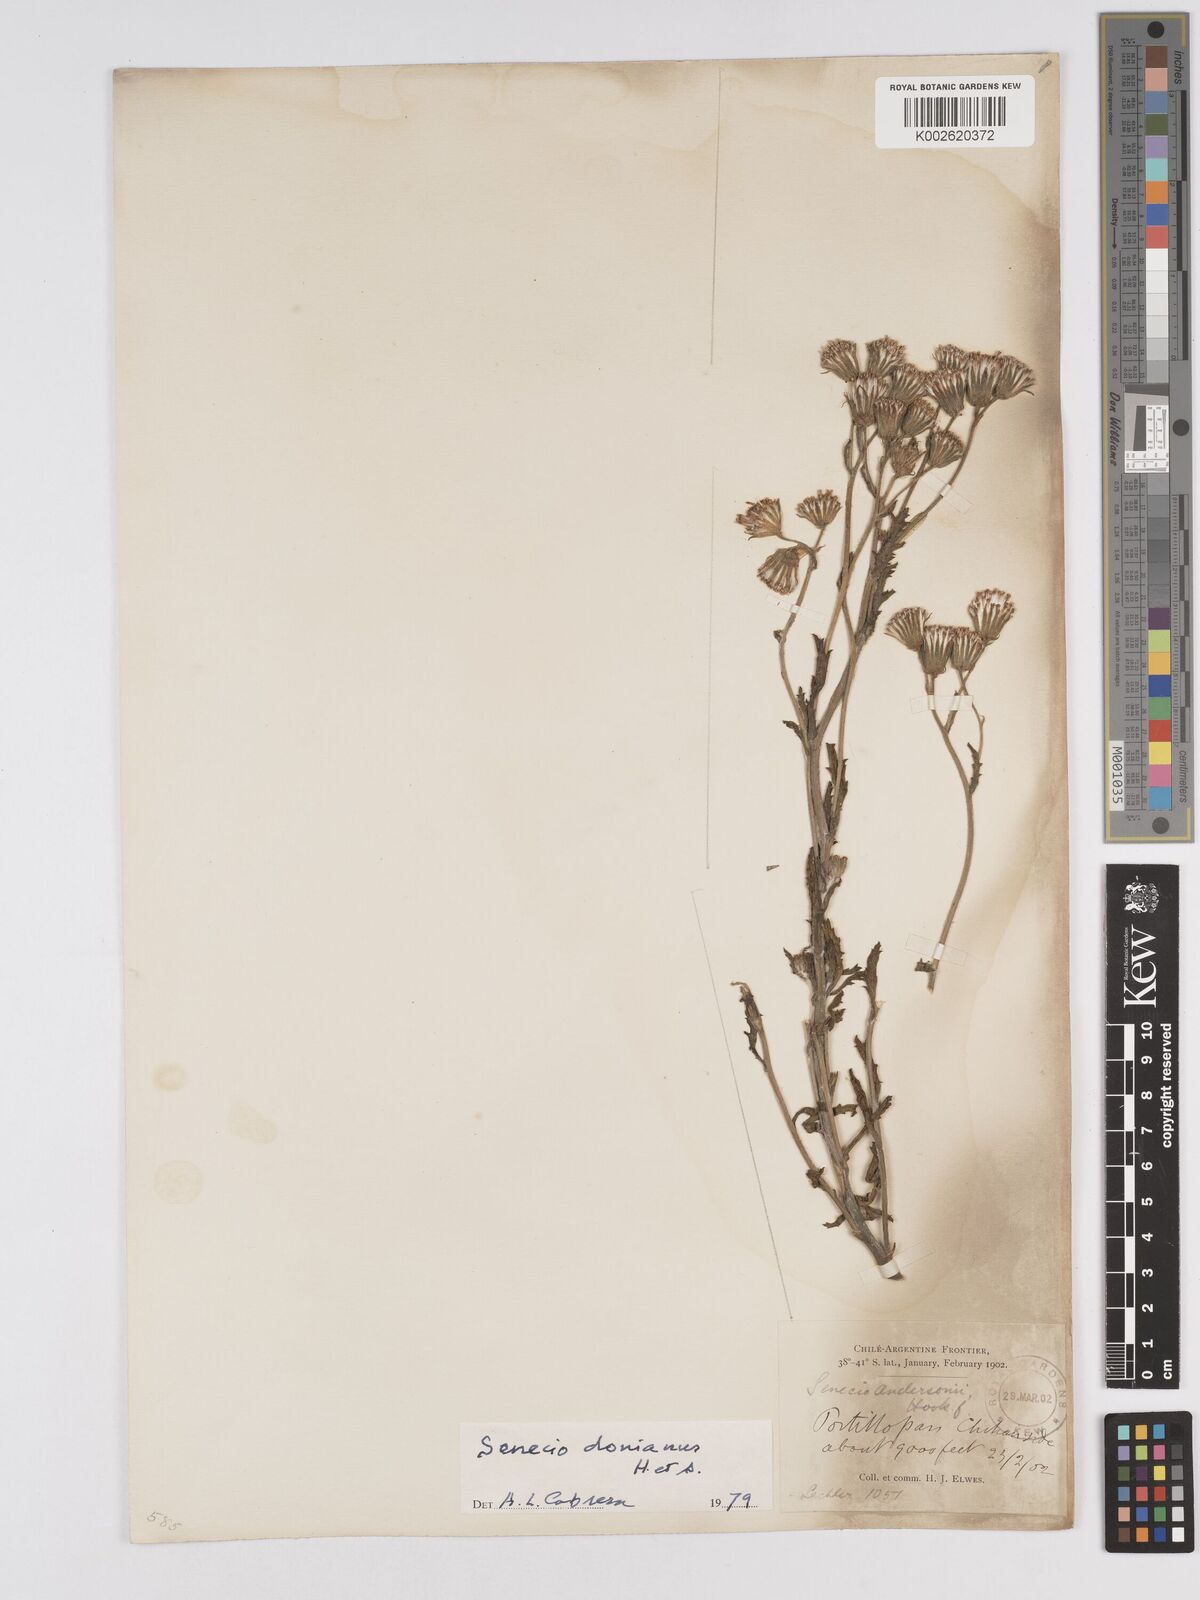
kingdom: Plantae
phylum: Tracheophyta
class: Magnoliopsida
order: Asterales
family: Asteraceae
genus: Senecio
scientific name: Senecio patagonicus
